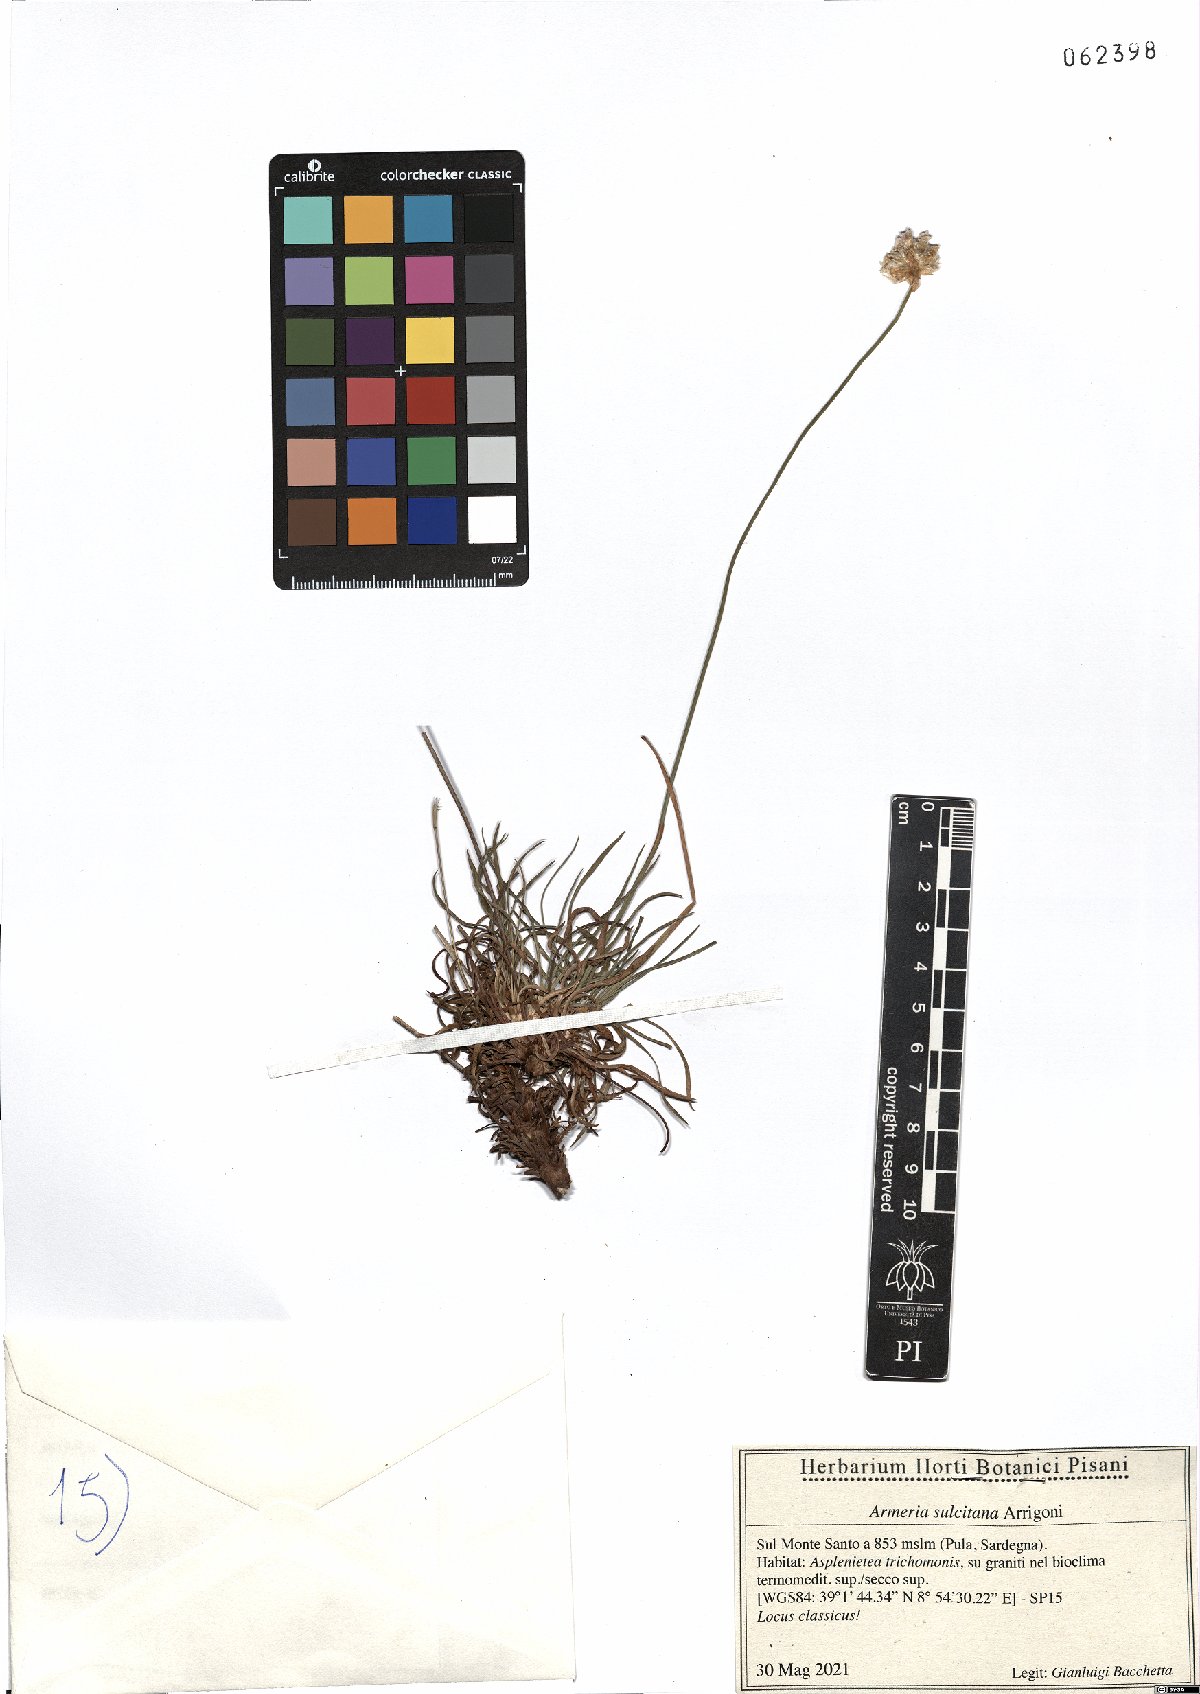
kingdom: Plantae
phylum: Tracheophyta
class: Magnoliopsida
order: Caryophyllales
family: Plumbaginaceae
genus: Armeria
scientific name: Armeria sulcitana
